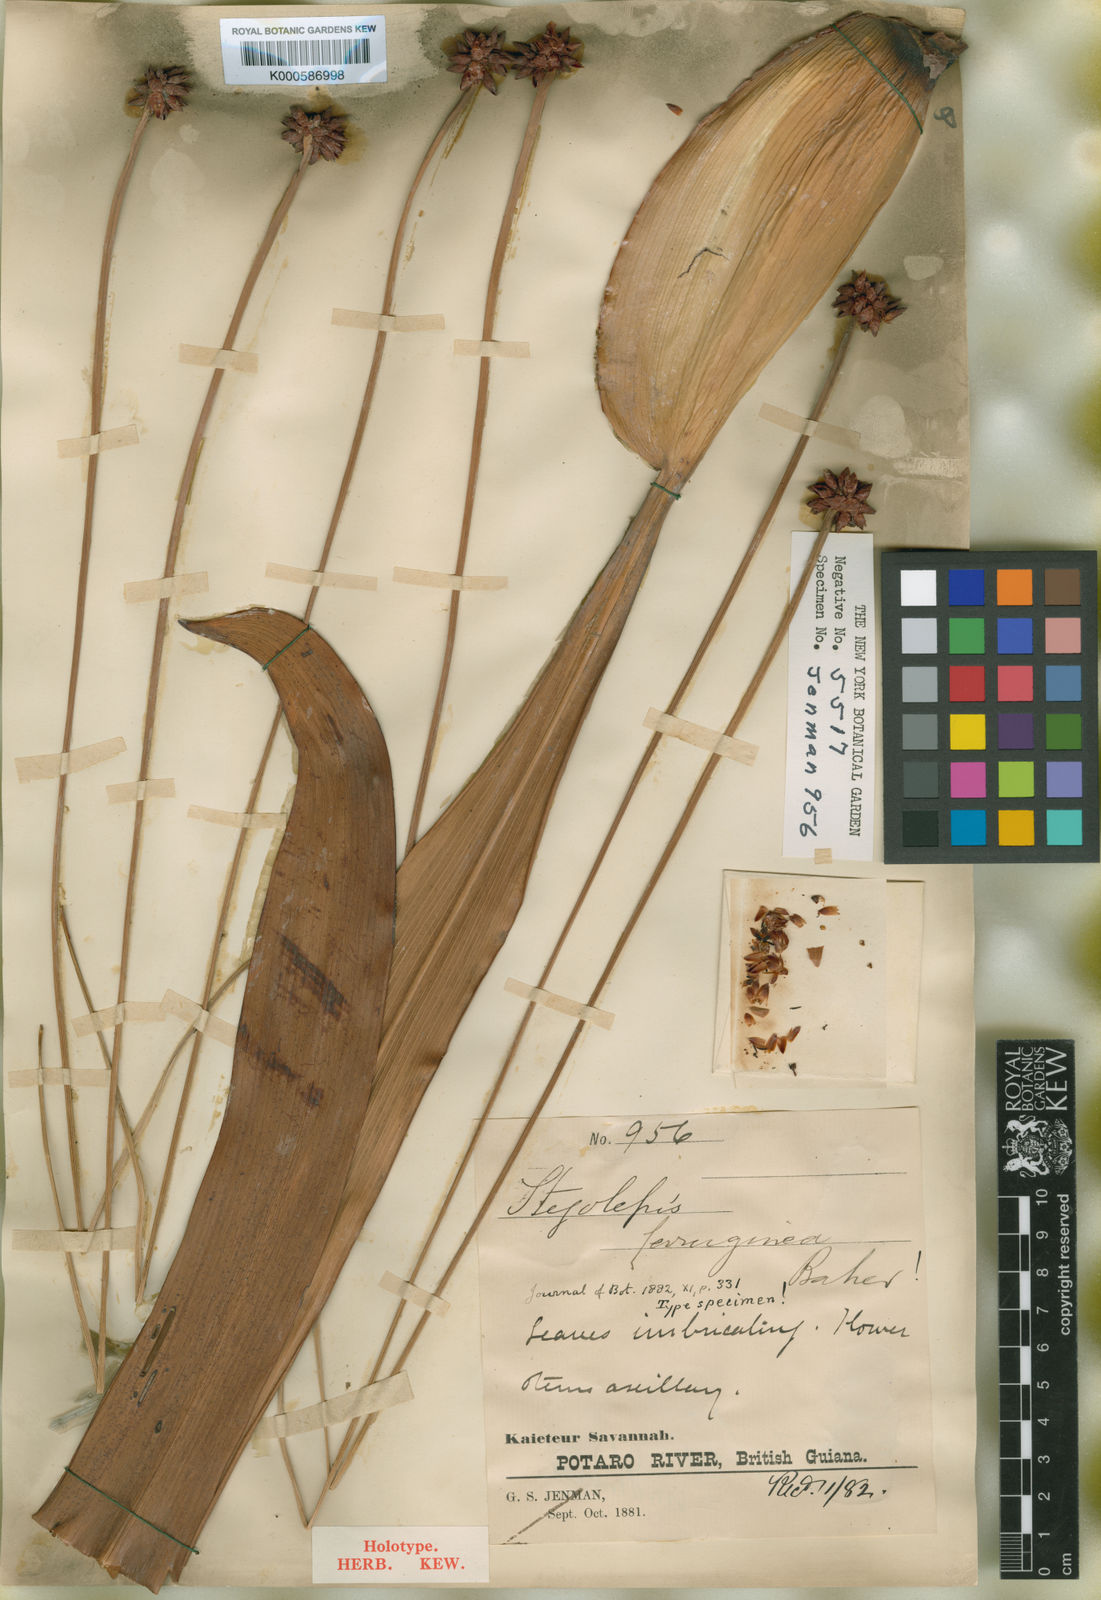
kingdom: Plantae
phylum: Tracheophyta
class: Liliopsida
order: Poales
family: Rapateaceae
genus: Stegolepis
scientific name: Stegolepis ferruginea
